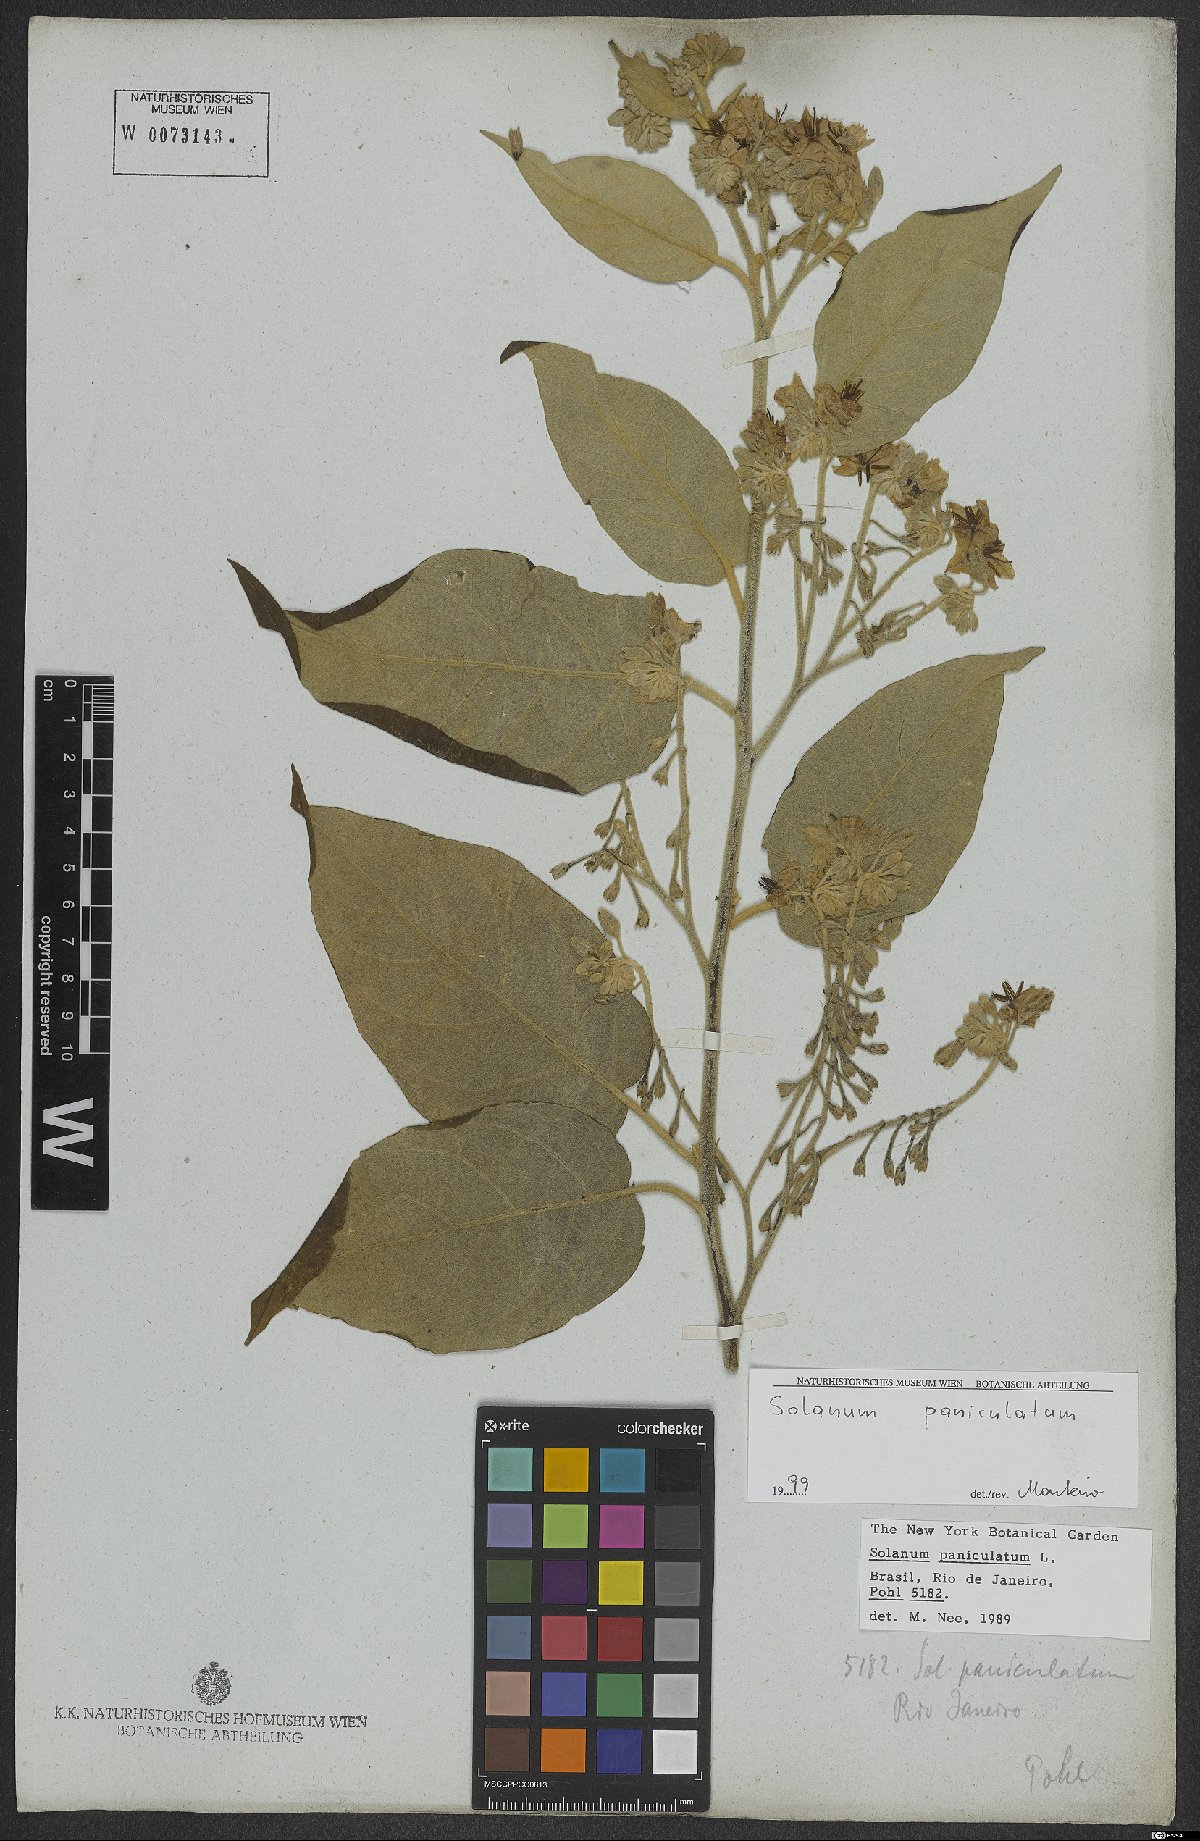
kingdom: Plantae
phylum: Tracheophyta
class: Magnoliopsida
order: Solanales
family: Solanaceae
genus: Solanum
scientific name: Solanum paniculatum
